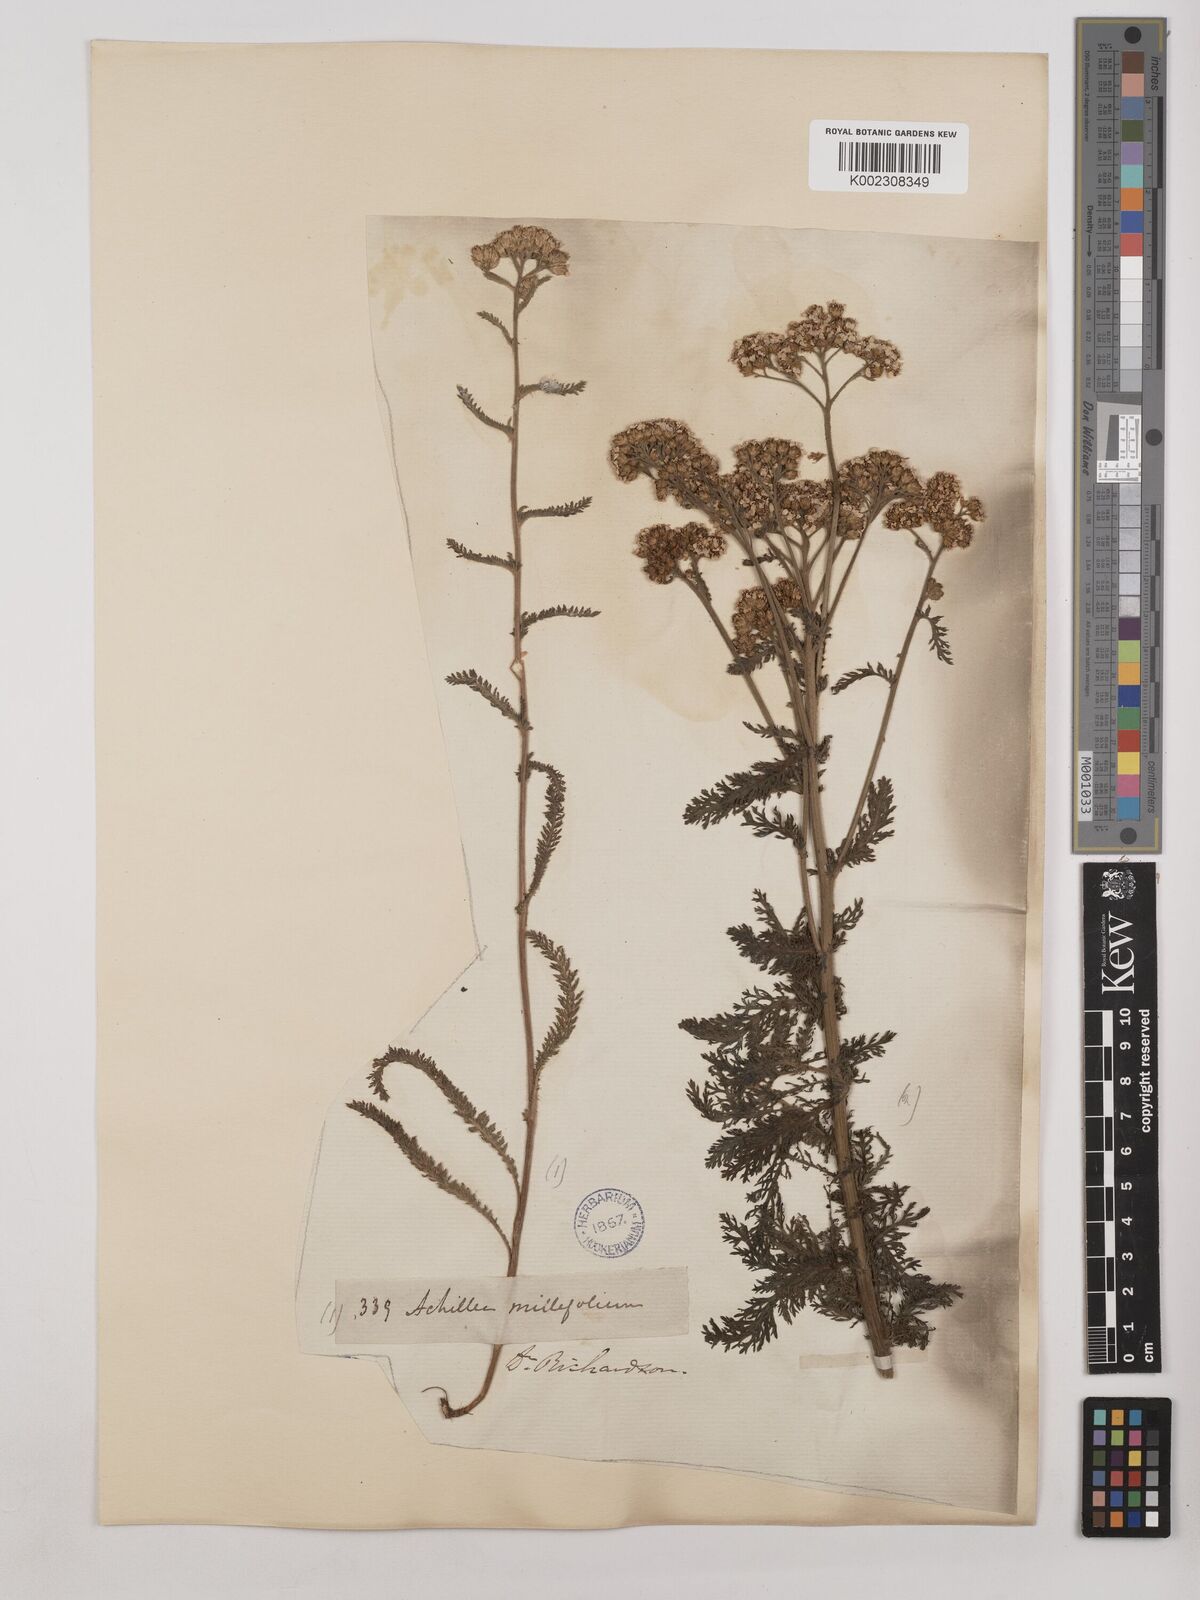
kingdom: Plantae
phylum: Tracheophyta
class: Magnoliopsida
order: Asterales
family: Asteraceae
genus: Achillea
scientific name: Achillea millefolium
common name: Yarrow
